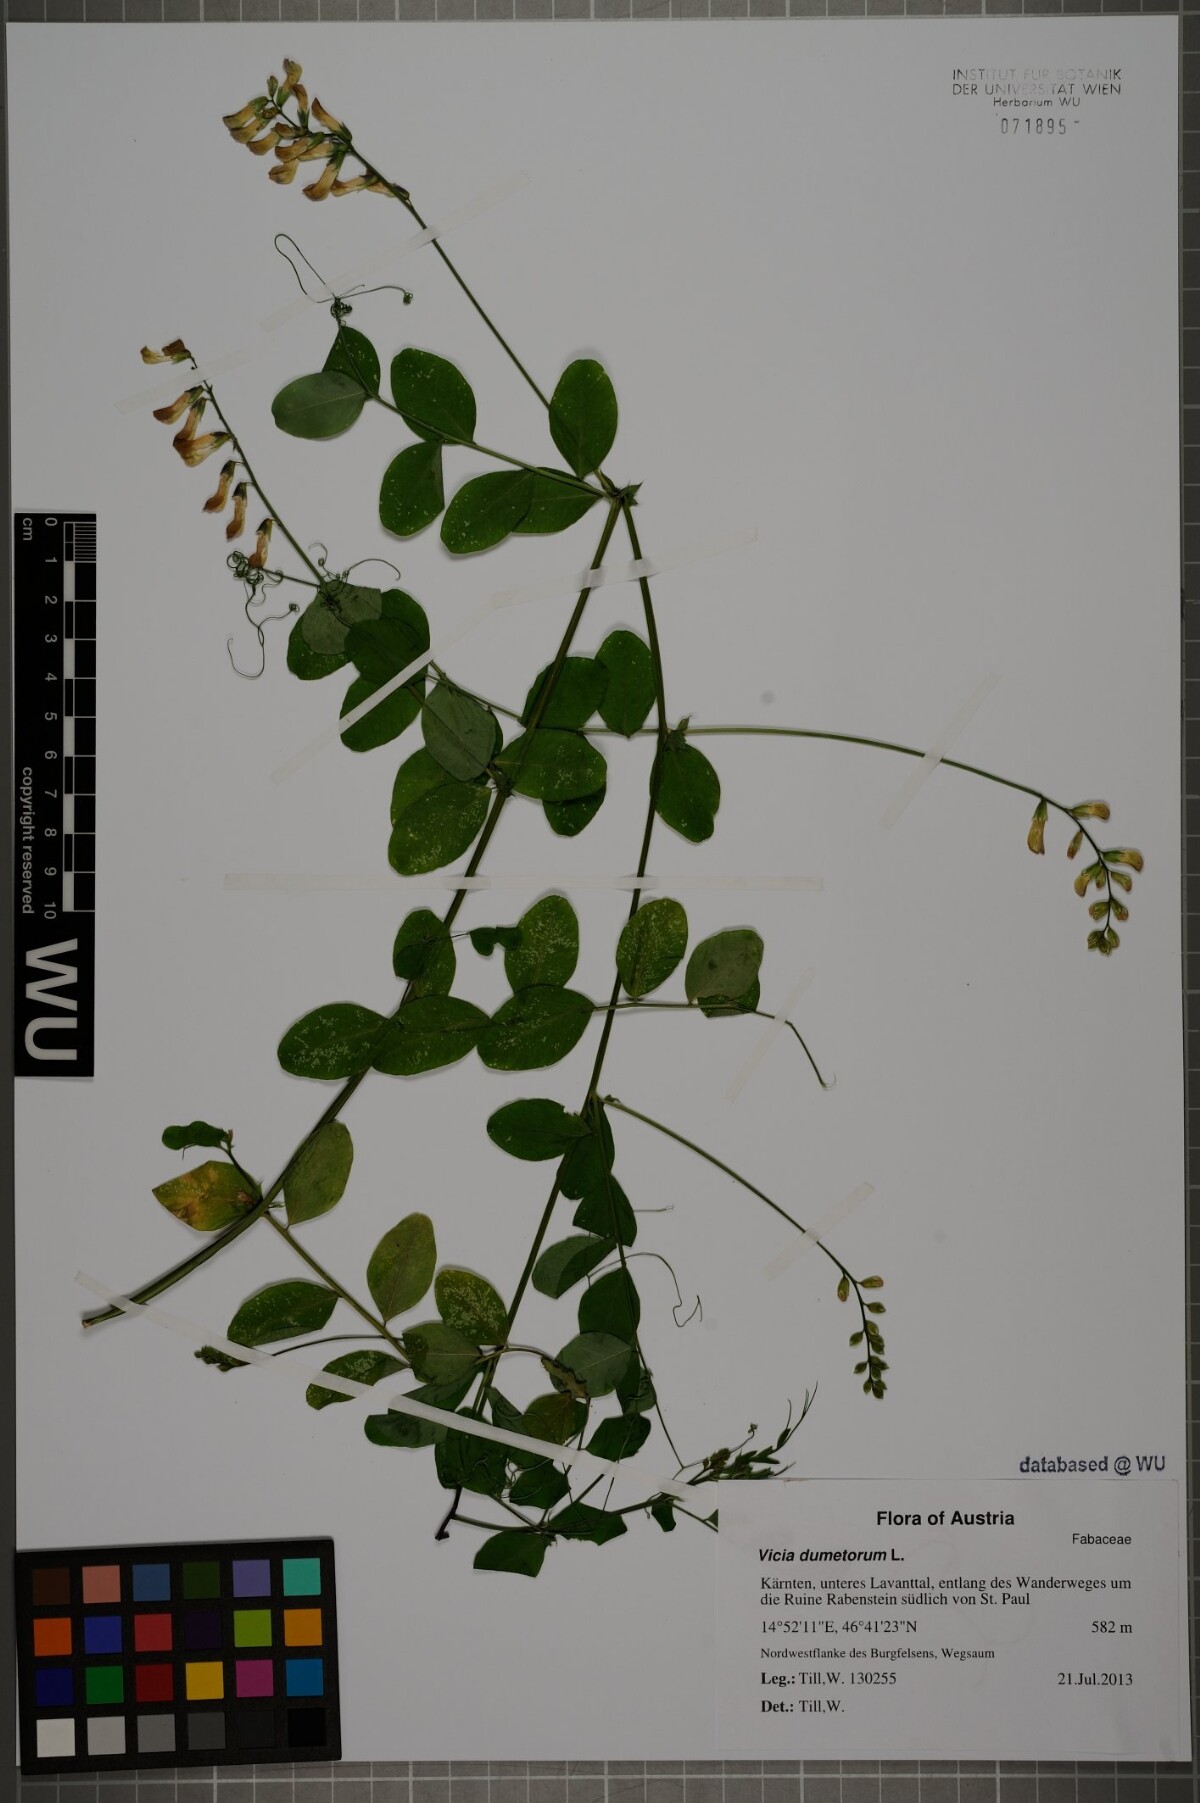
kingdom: Plantae
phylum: Tracheophyta
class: Magnoliopsida
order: Fabales
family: Fabaceae
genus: Vicia
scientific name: Vicia dumetorum
